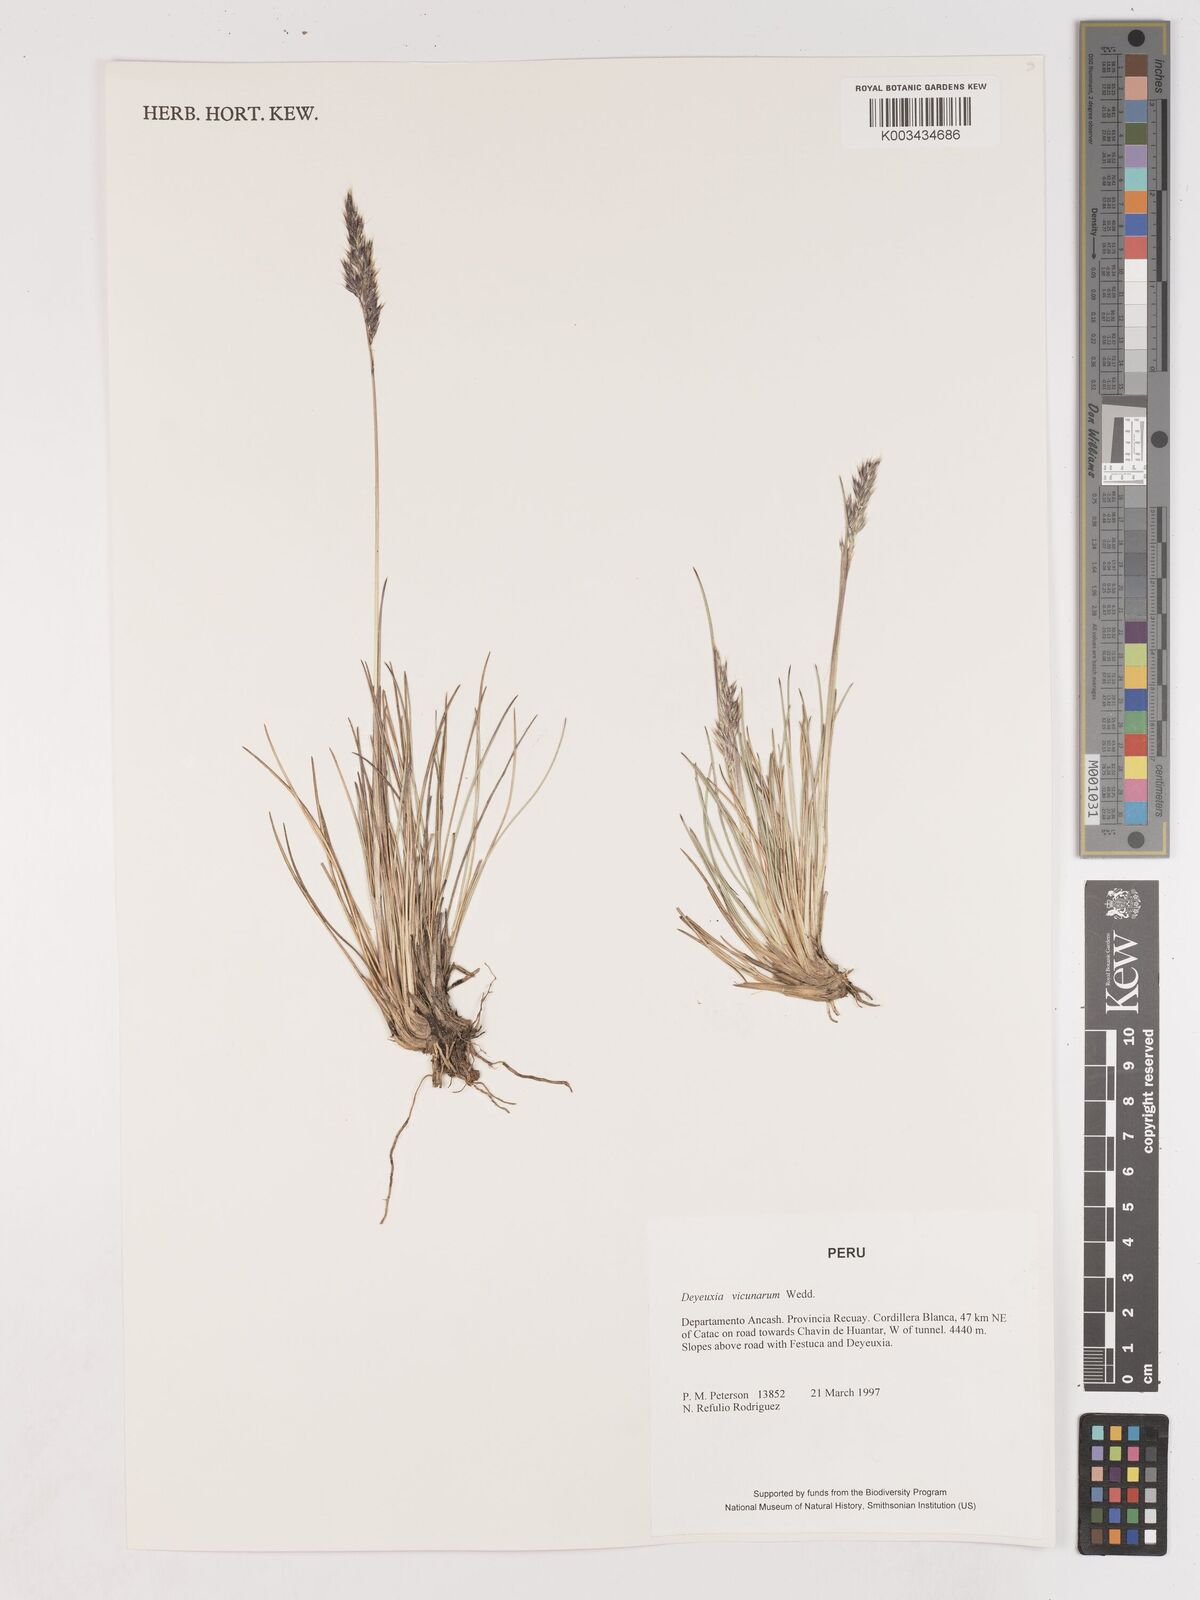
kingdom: Plantae
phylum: Tracheophyta
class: Liliopsida
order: Poales
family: Poaceae
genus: Cinnagrostis
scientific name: Cinnagrostis vicunarum
